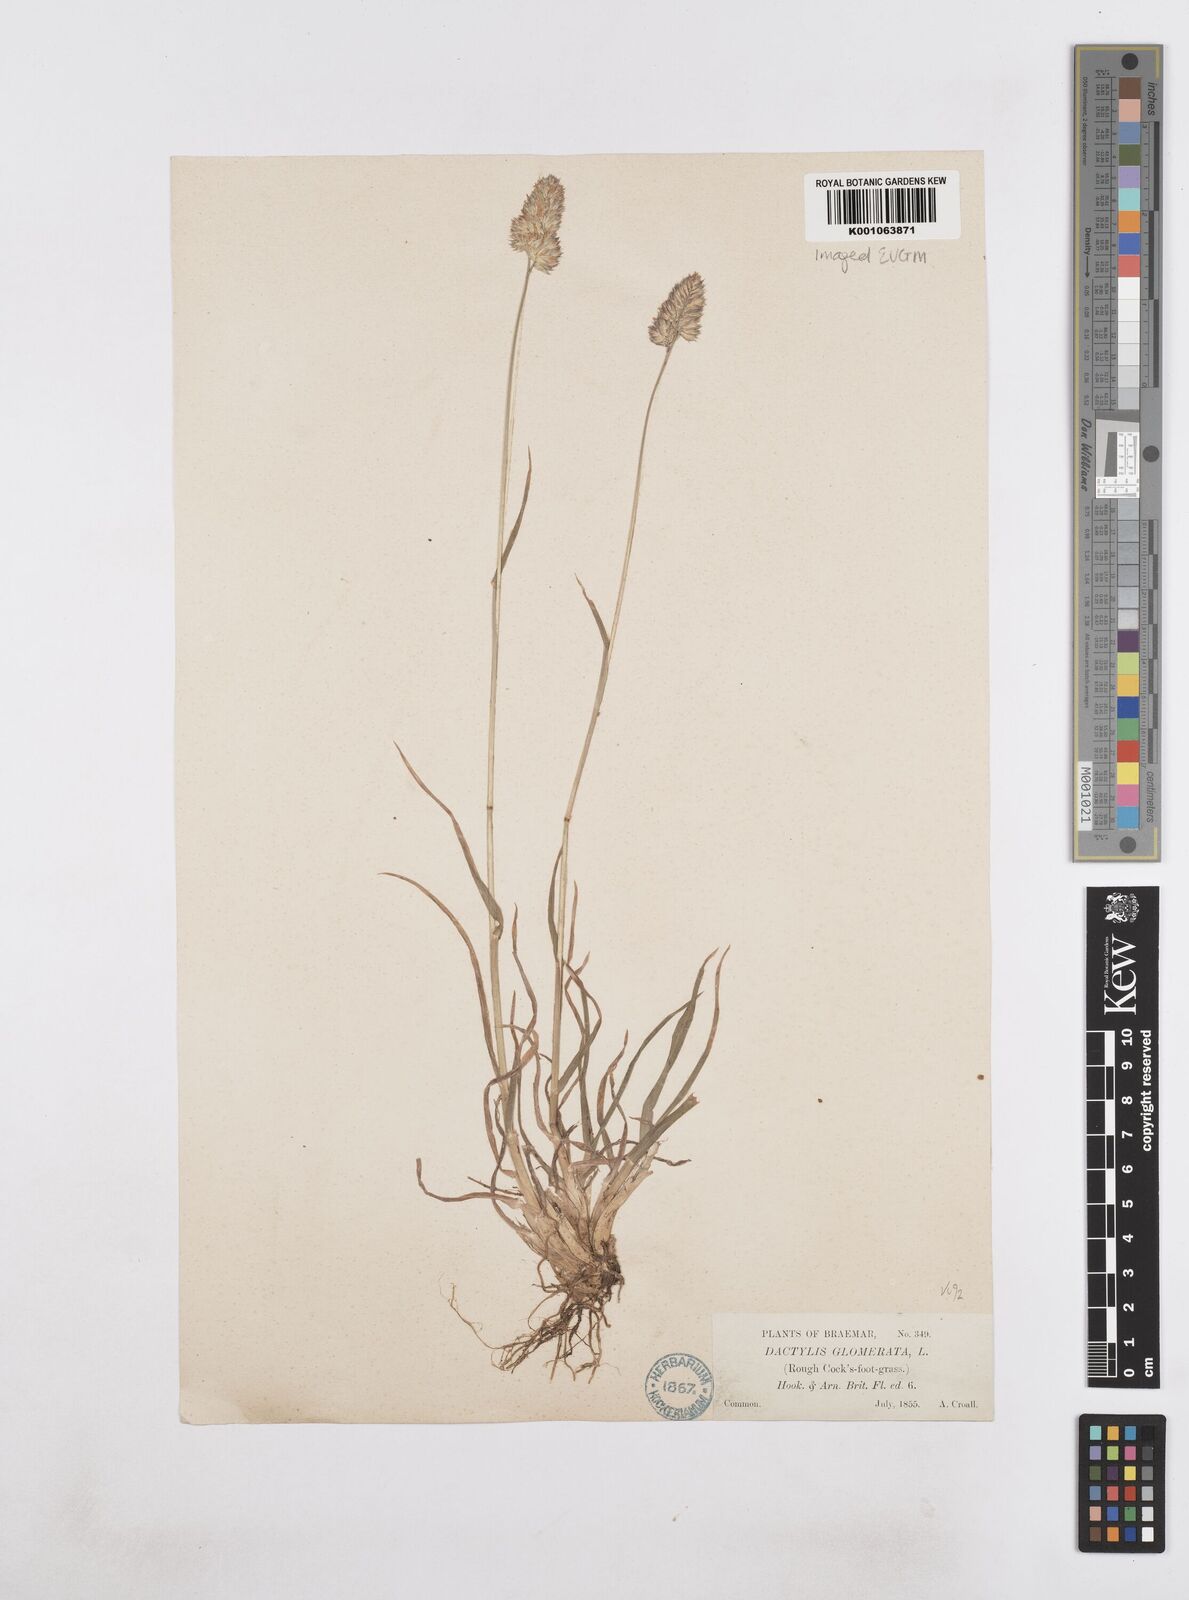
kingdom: Plantae
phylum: Tracheophyta
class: Liliopsida
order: Poales
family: Poaceae
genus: Dactylis
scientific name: Dactylis glomerata
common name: Orchardgrass
